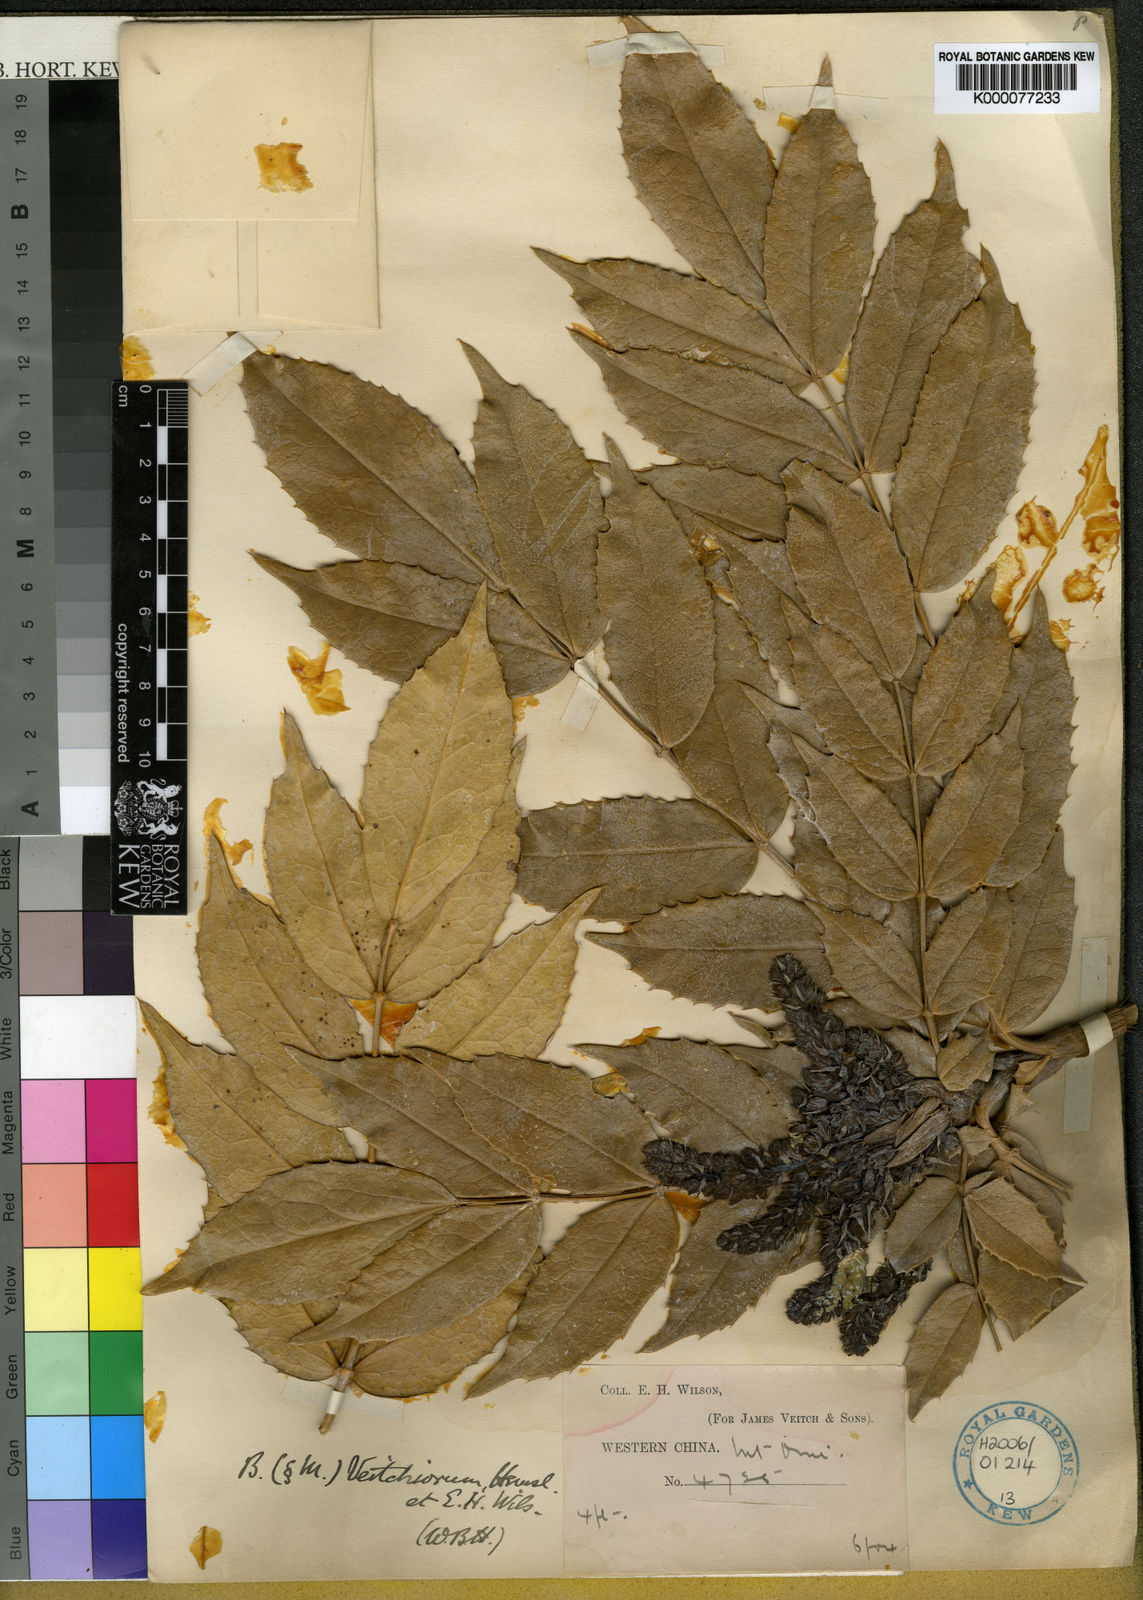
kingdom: Plantae
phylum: Tracheophyta
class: Magnoliopsida
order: Ranunculales
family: Berberidaceae
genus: Mahonia
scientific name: Mahonia polyodonta
